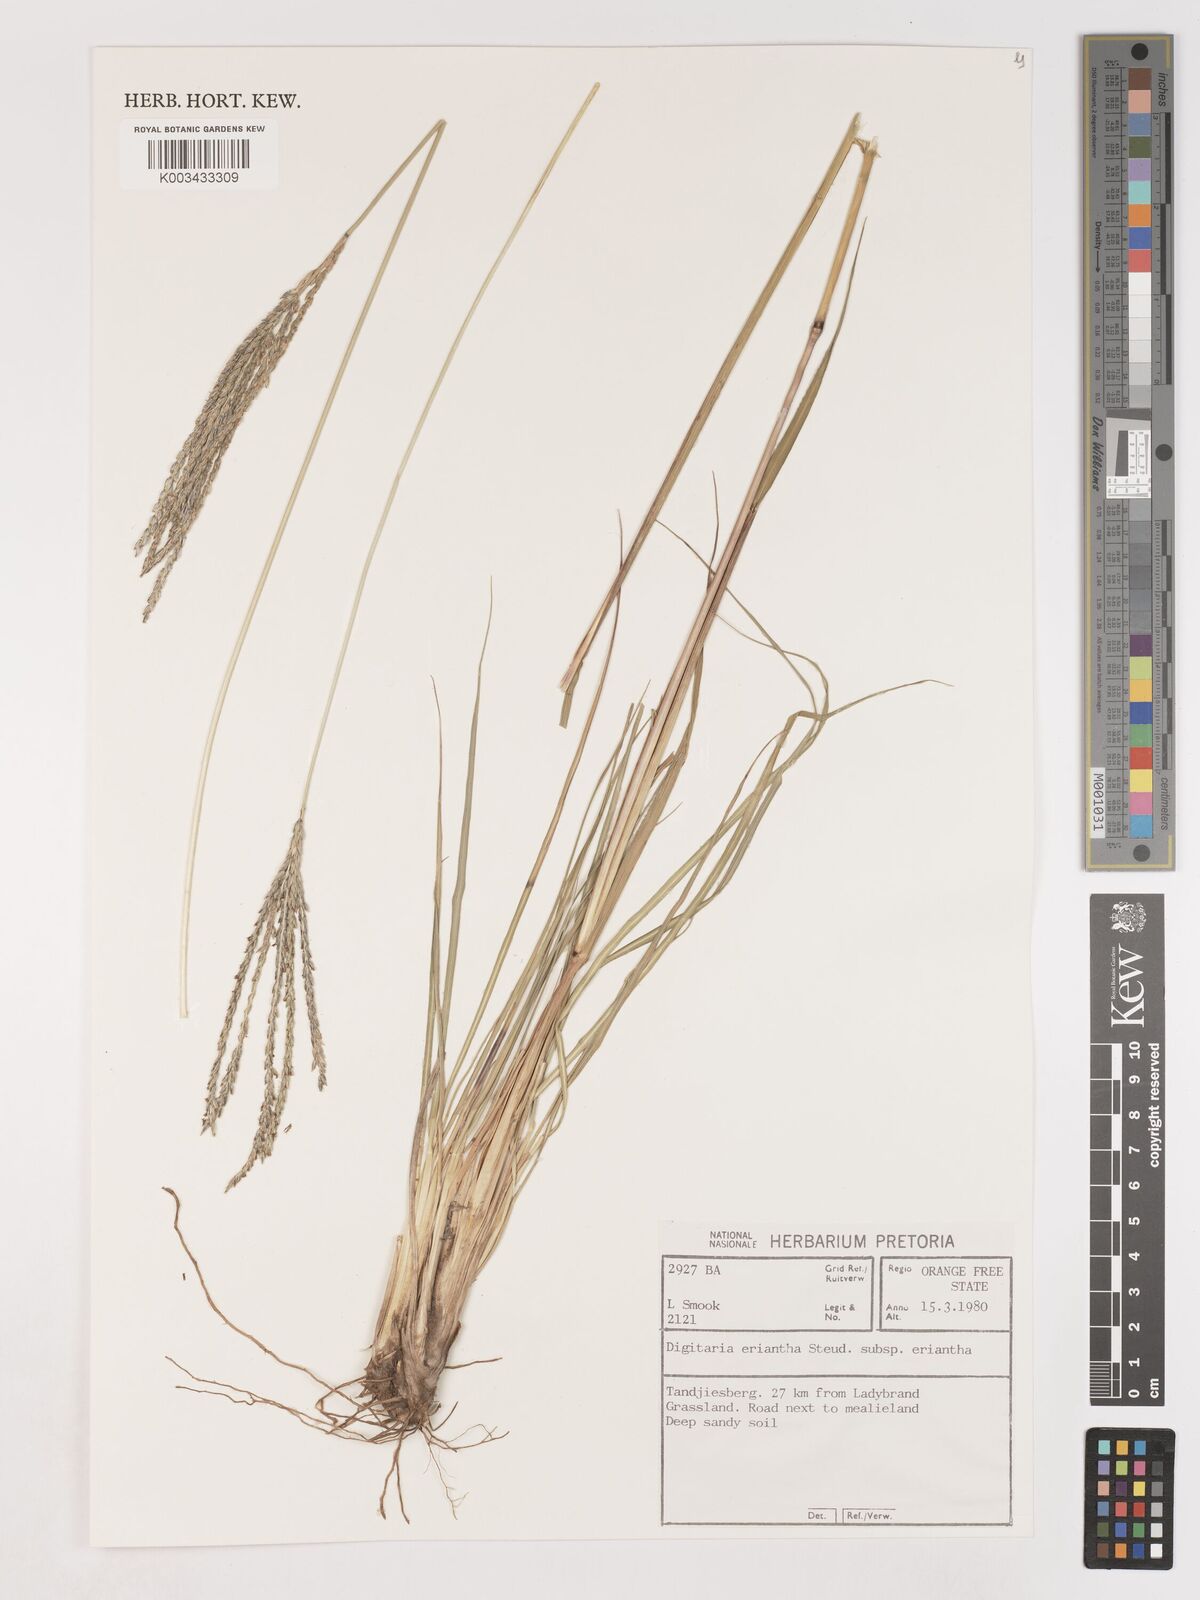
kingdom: Plantae
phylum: Tracheophyta
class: Liliopsida
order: Poales
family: Poaceae
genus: Digitaria
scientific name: Digitaria eriantha
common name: Digitgrass
